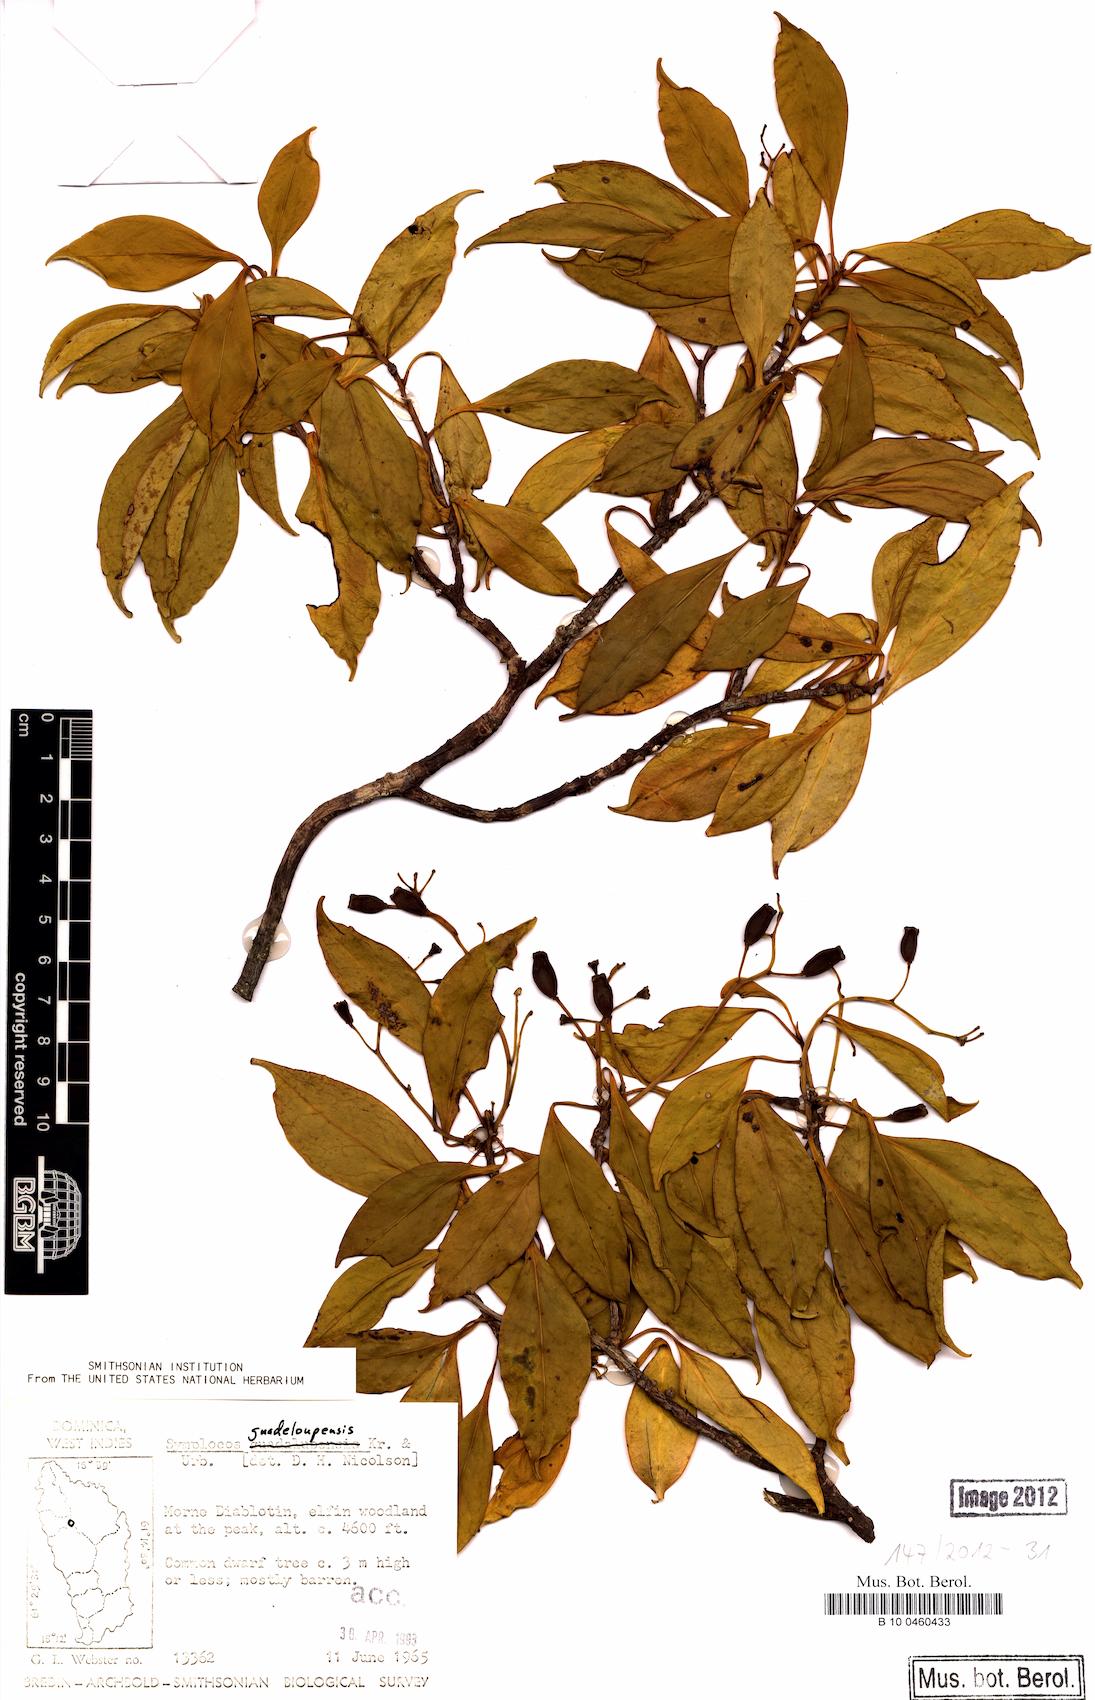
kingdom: Plantae
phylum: Tracheophyta
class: Magnoliopsida
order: Ericales
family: Symplocaceae
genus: Symplocos
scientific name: Symplocos guadeloupensis
